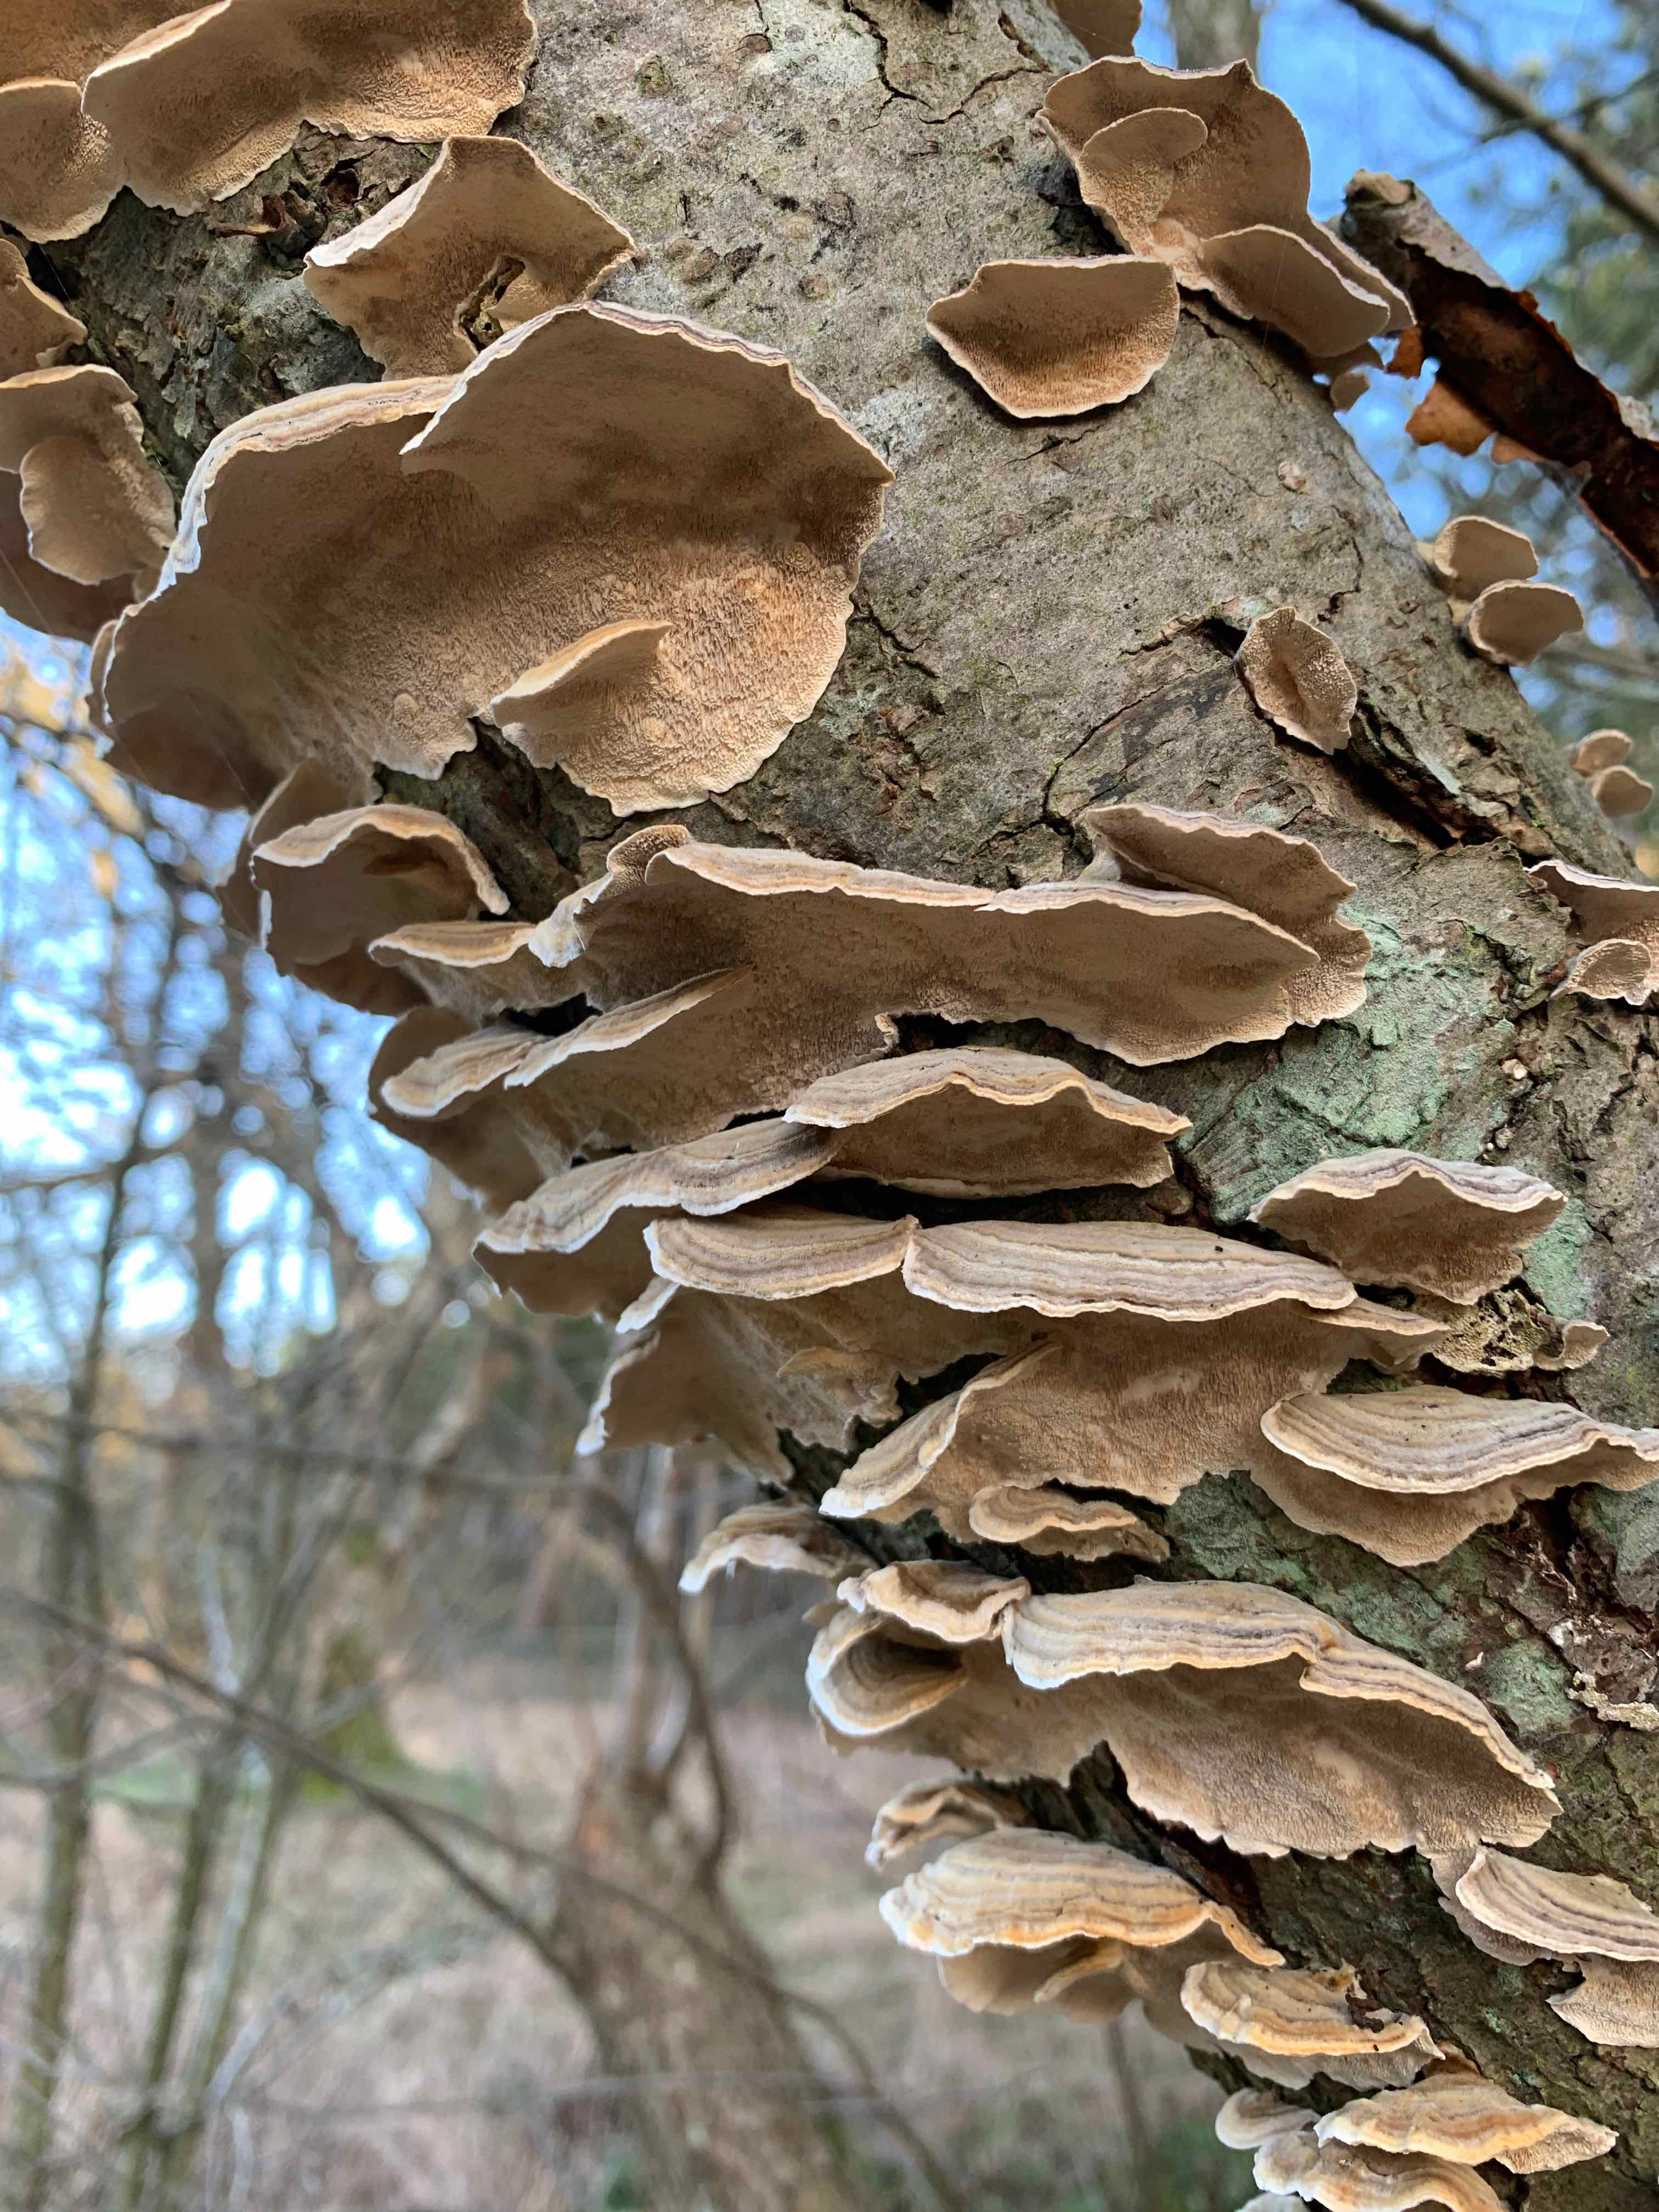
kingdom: Fungi
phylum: Basidiomycota
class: Agaricomycetes
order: Polyporales
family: Polyporaceae
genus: Trametes
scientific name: Trametes versicolor
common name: broget læderporesvamp
